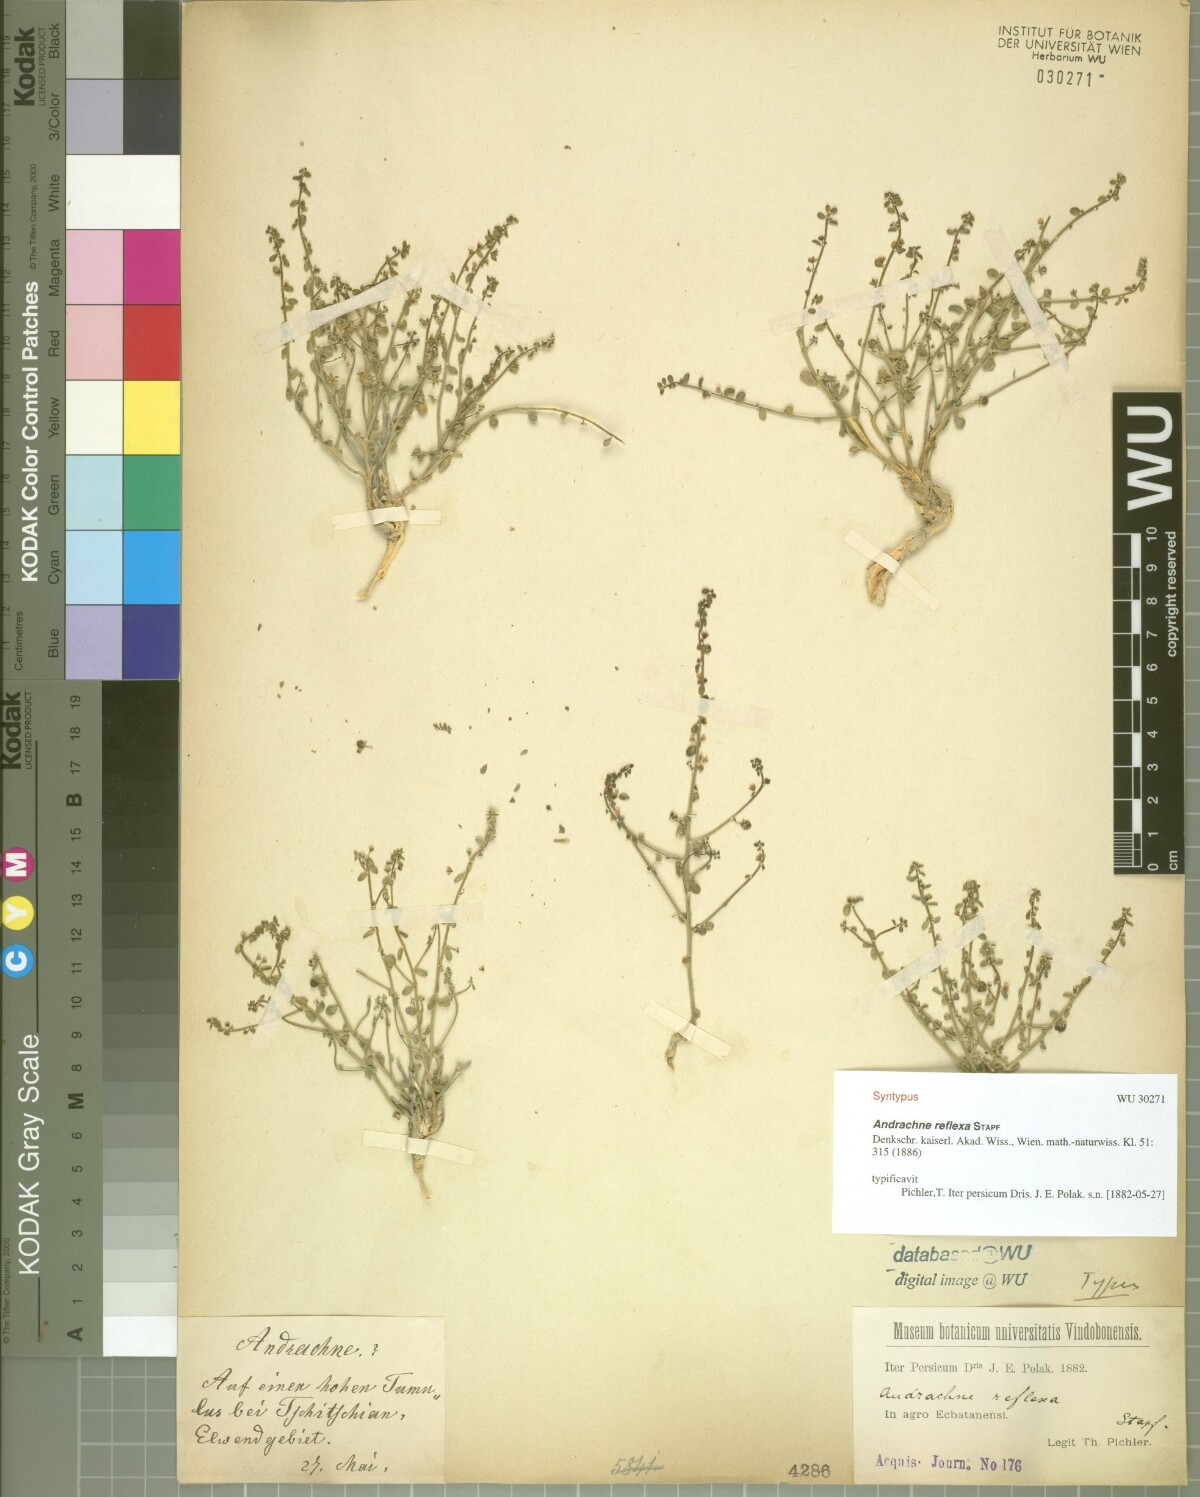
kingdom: Plantae
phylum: Tracheophyta
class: Magnoliopsida
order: Malpighiales
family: Phyllanthaceae
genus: Andrachne
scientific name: Andrachne reflexa
